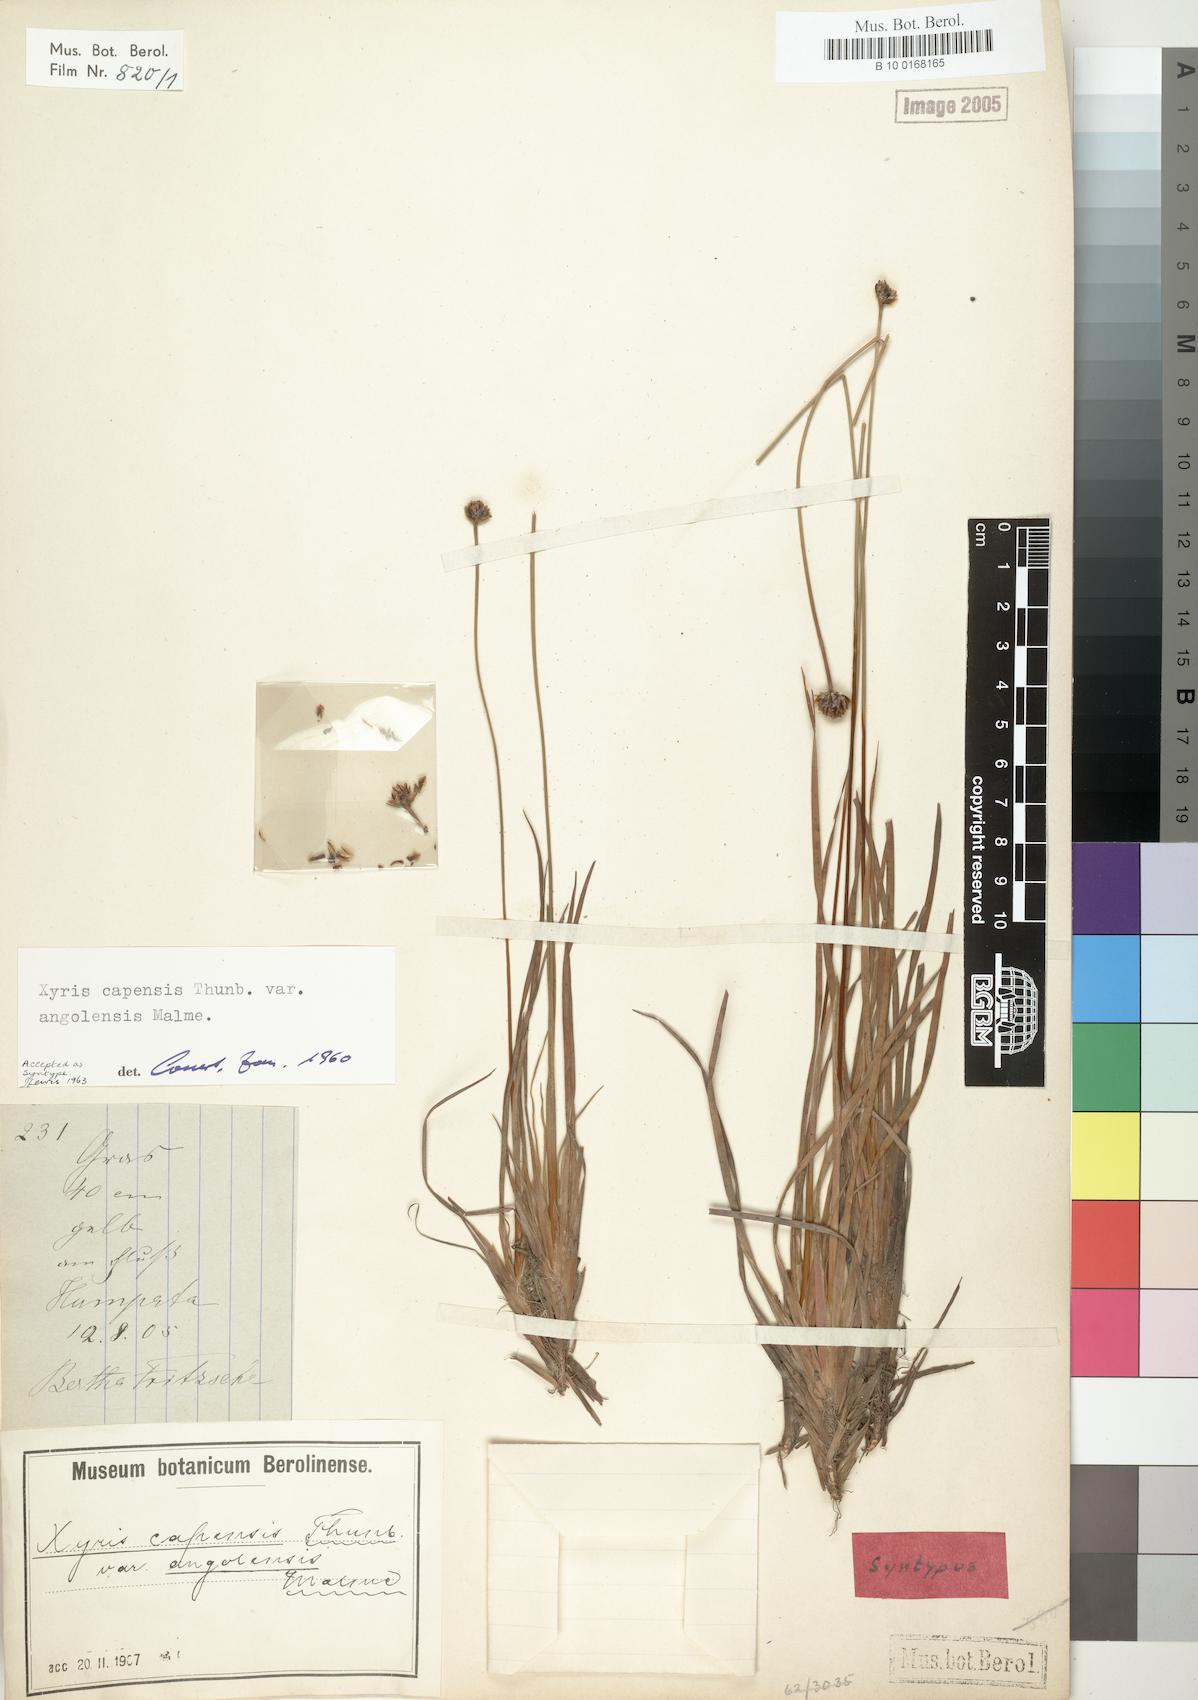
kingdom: Plantae
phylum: Tracheophyta
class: Liliopsida
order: Poales
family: Xyridaceae
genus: Xyris
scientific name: Xyris capensis
